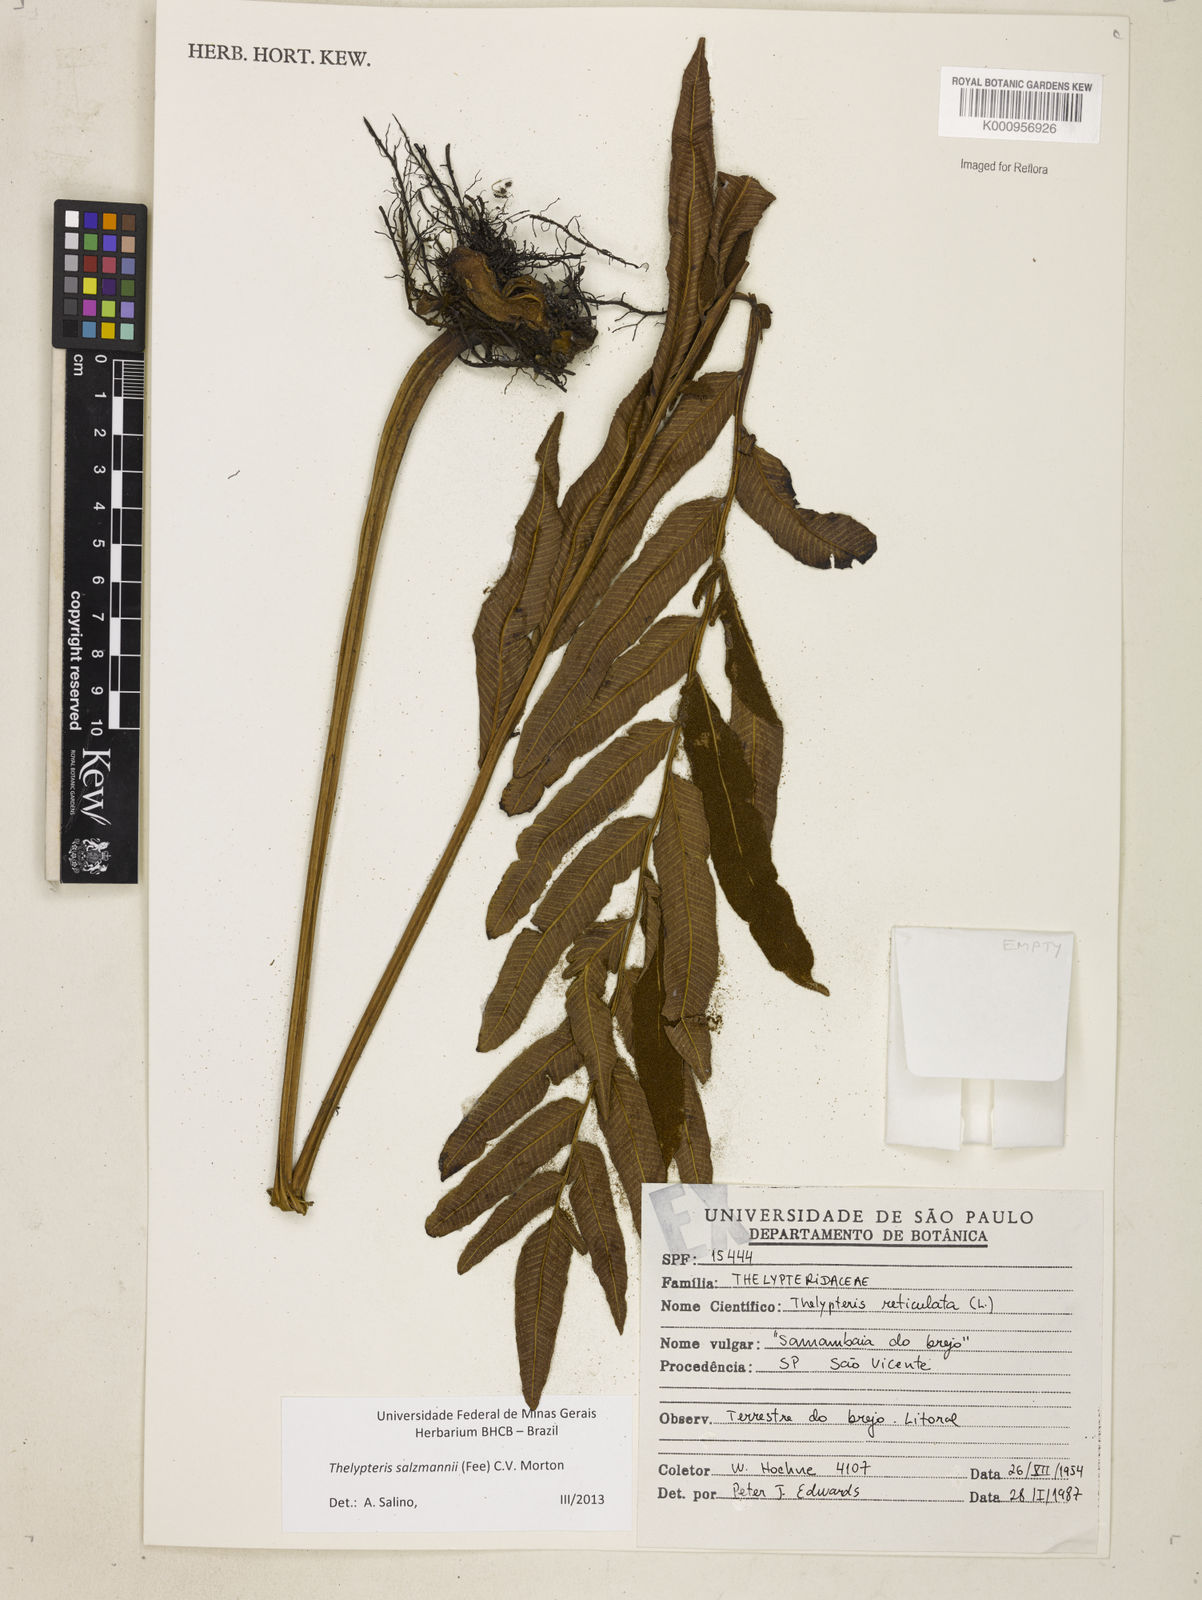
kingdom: Plantae
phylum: Tracheophyta
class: Polypodiopsida
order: Polypodiales
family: Thelypteridaceae
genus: Meniscium
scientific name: Meniscium arborescens
